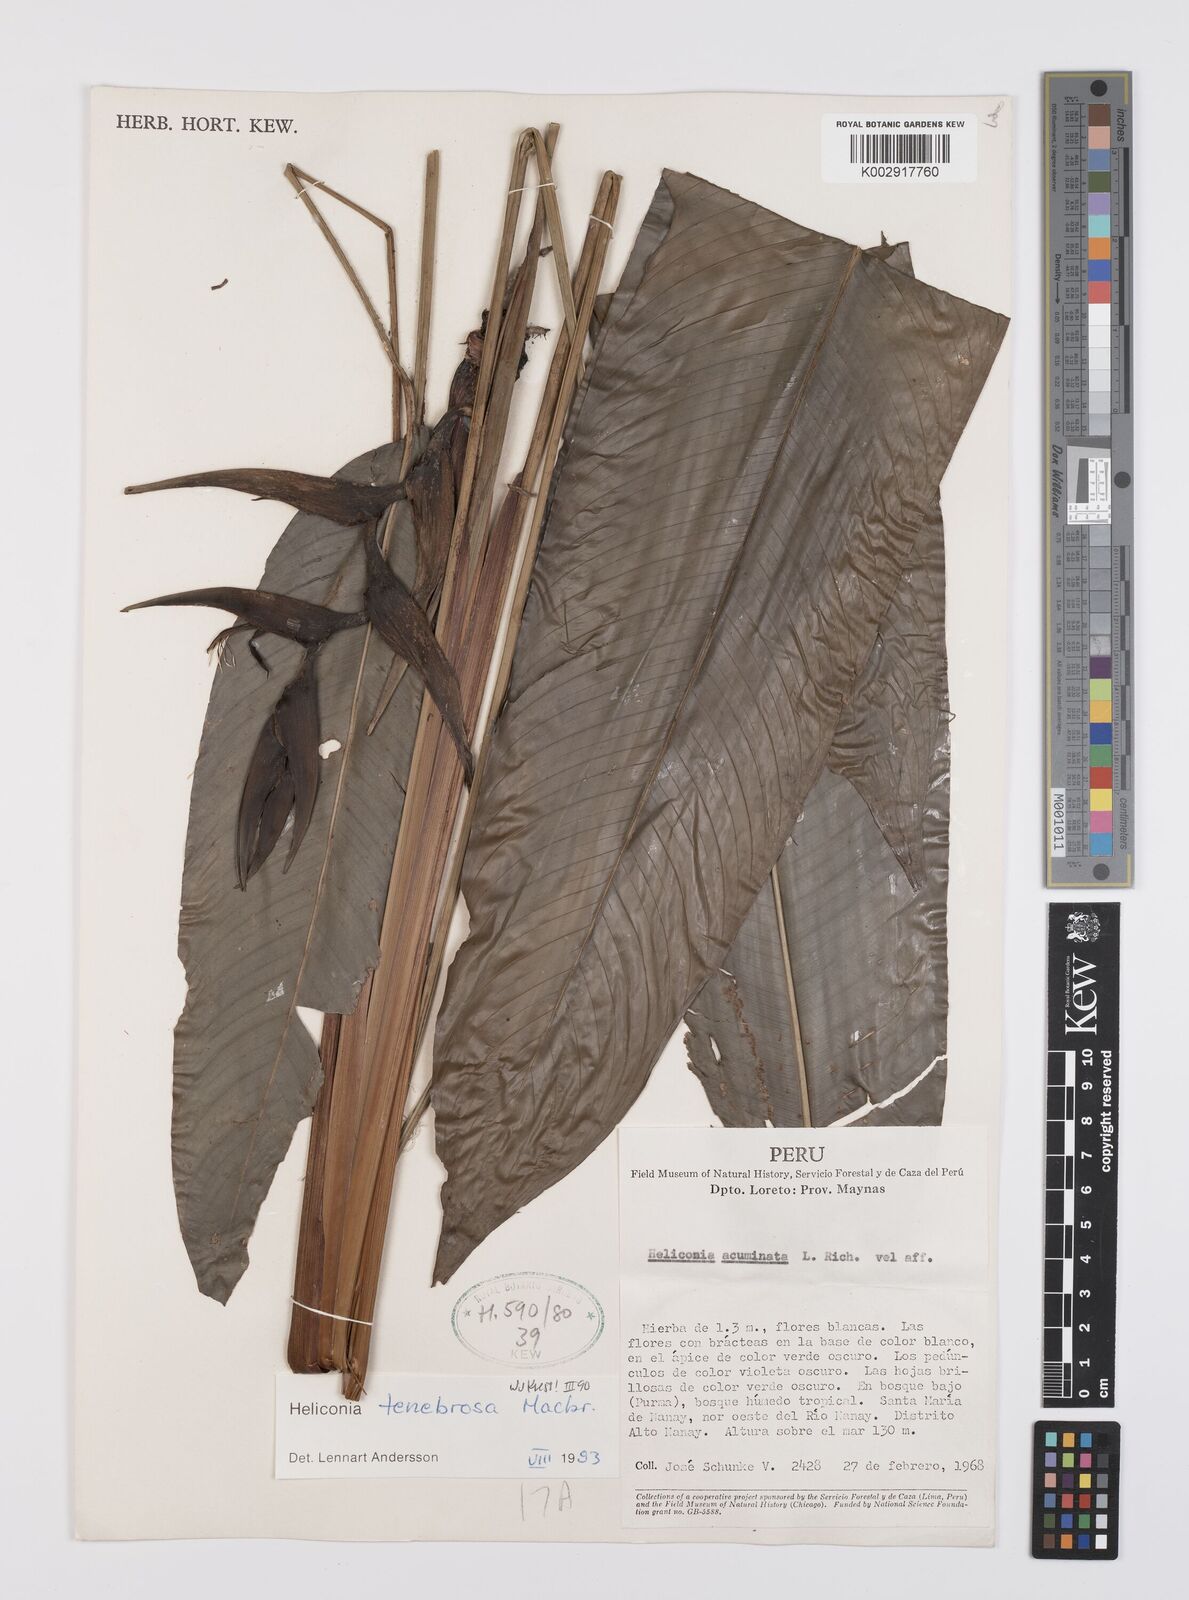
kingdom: Plantae
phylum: Tracheophyta
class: Liliopsida
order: Zingiberales
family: Heliconiaceae
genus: Heliconia
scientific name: Heliconia tenebrosa
